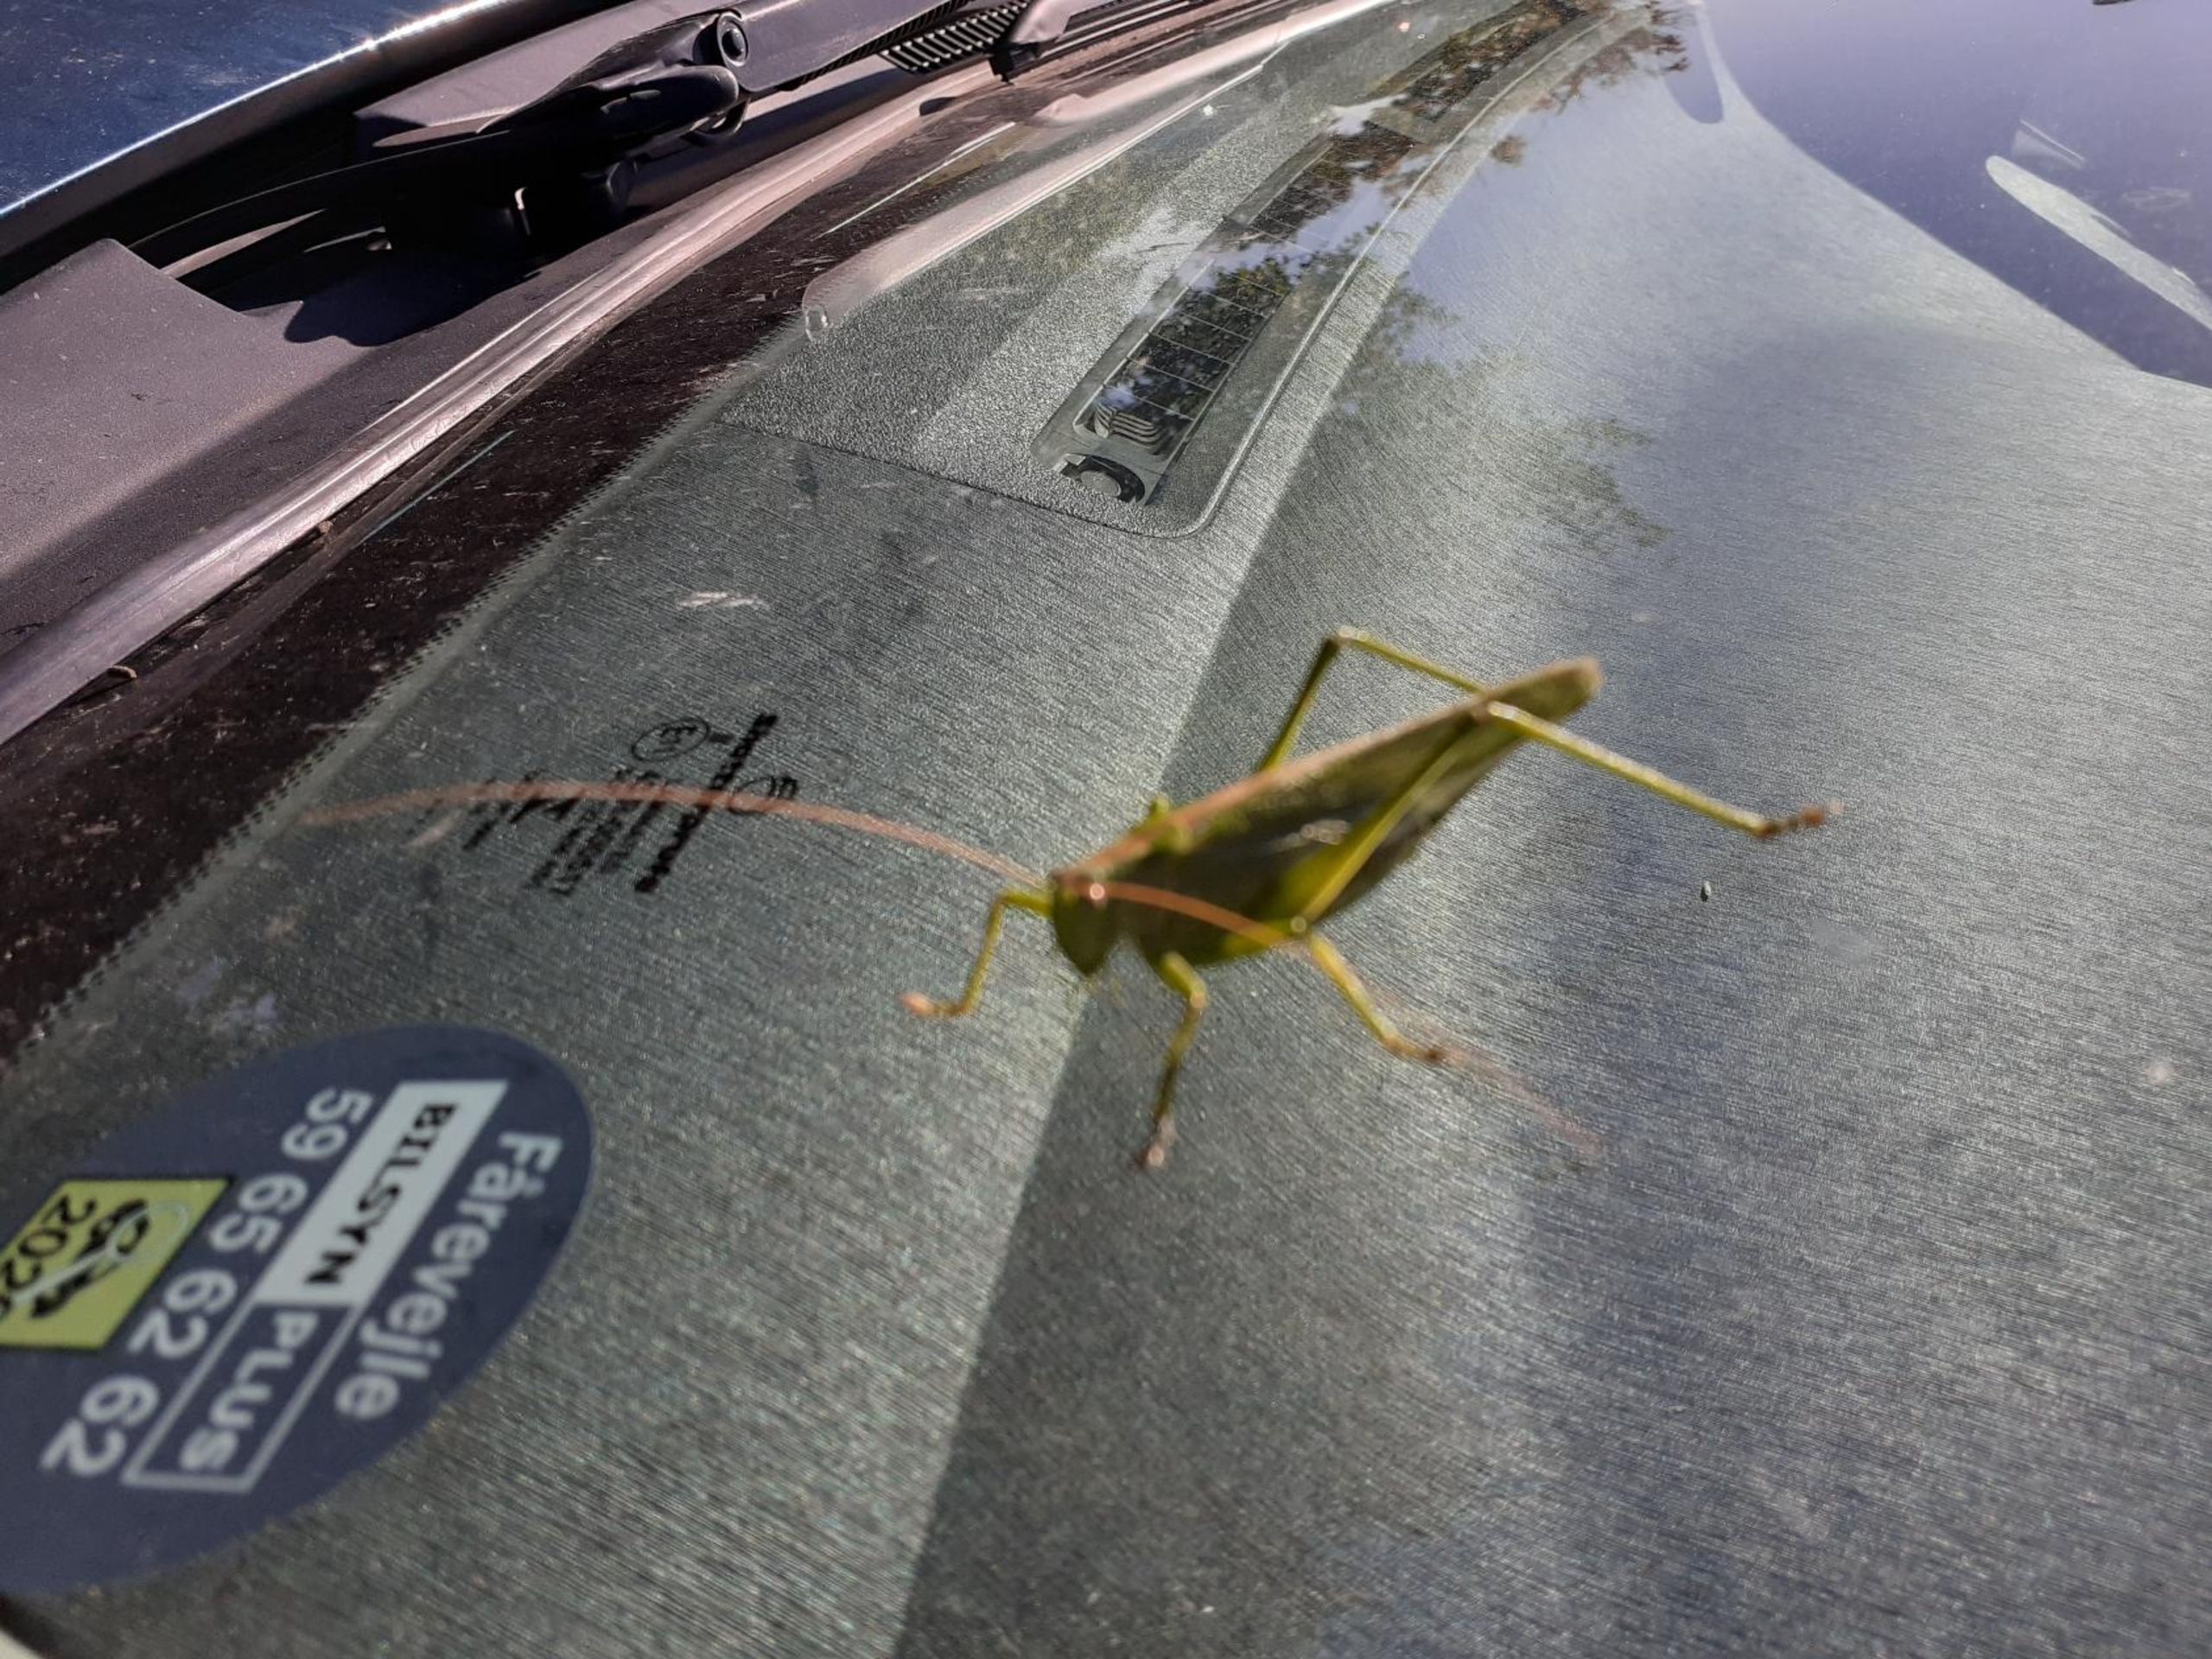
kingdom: Animalia
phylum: Arthropoda
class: Insecta
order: Orthoptera
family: Tettigoniidae
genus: Tettigonia
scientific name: Tettigonia viridissima
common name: Stor grøn løvgræshoppe
